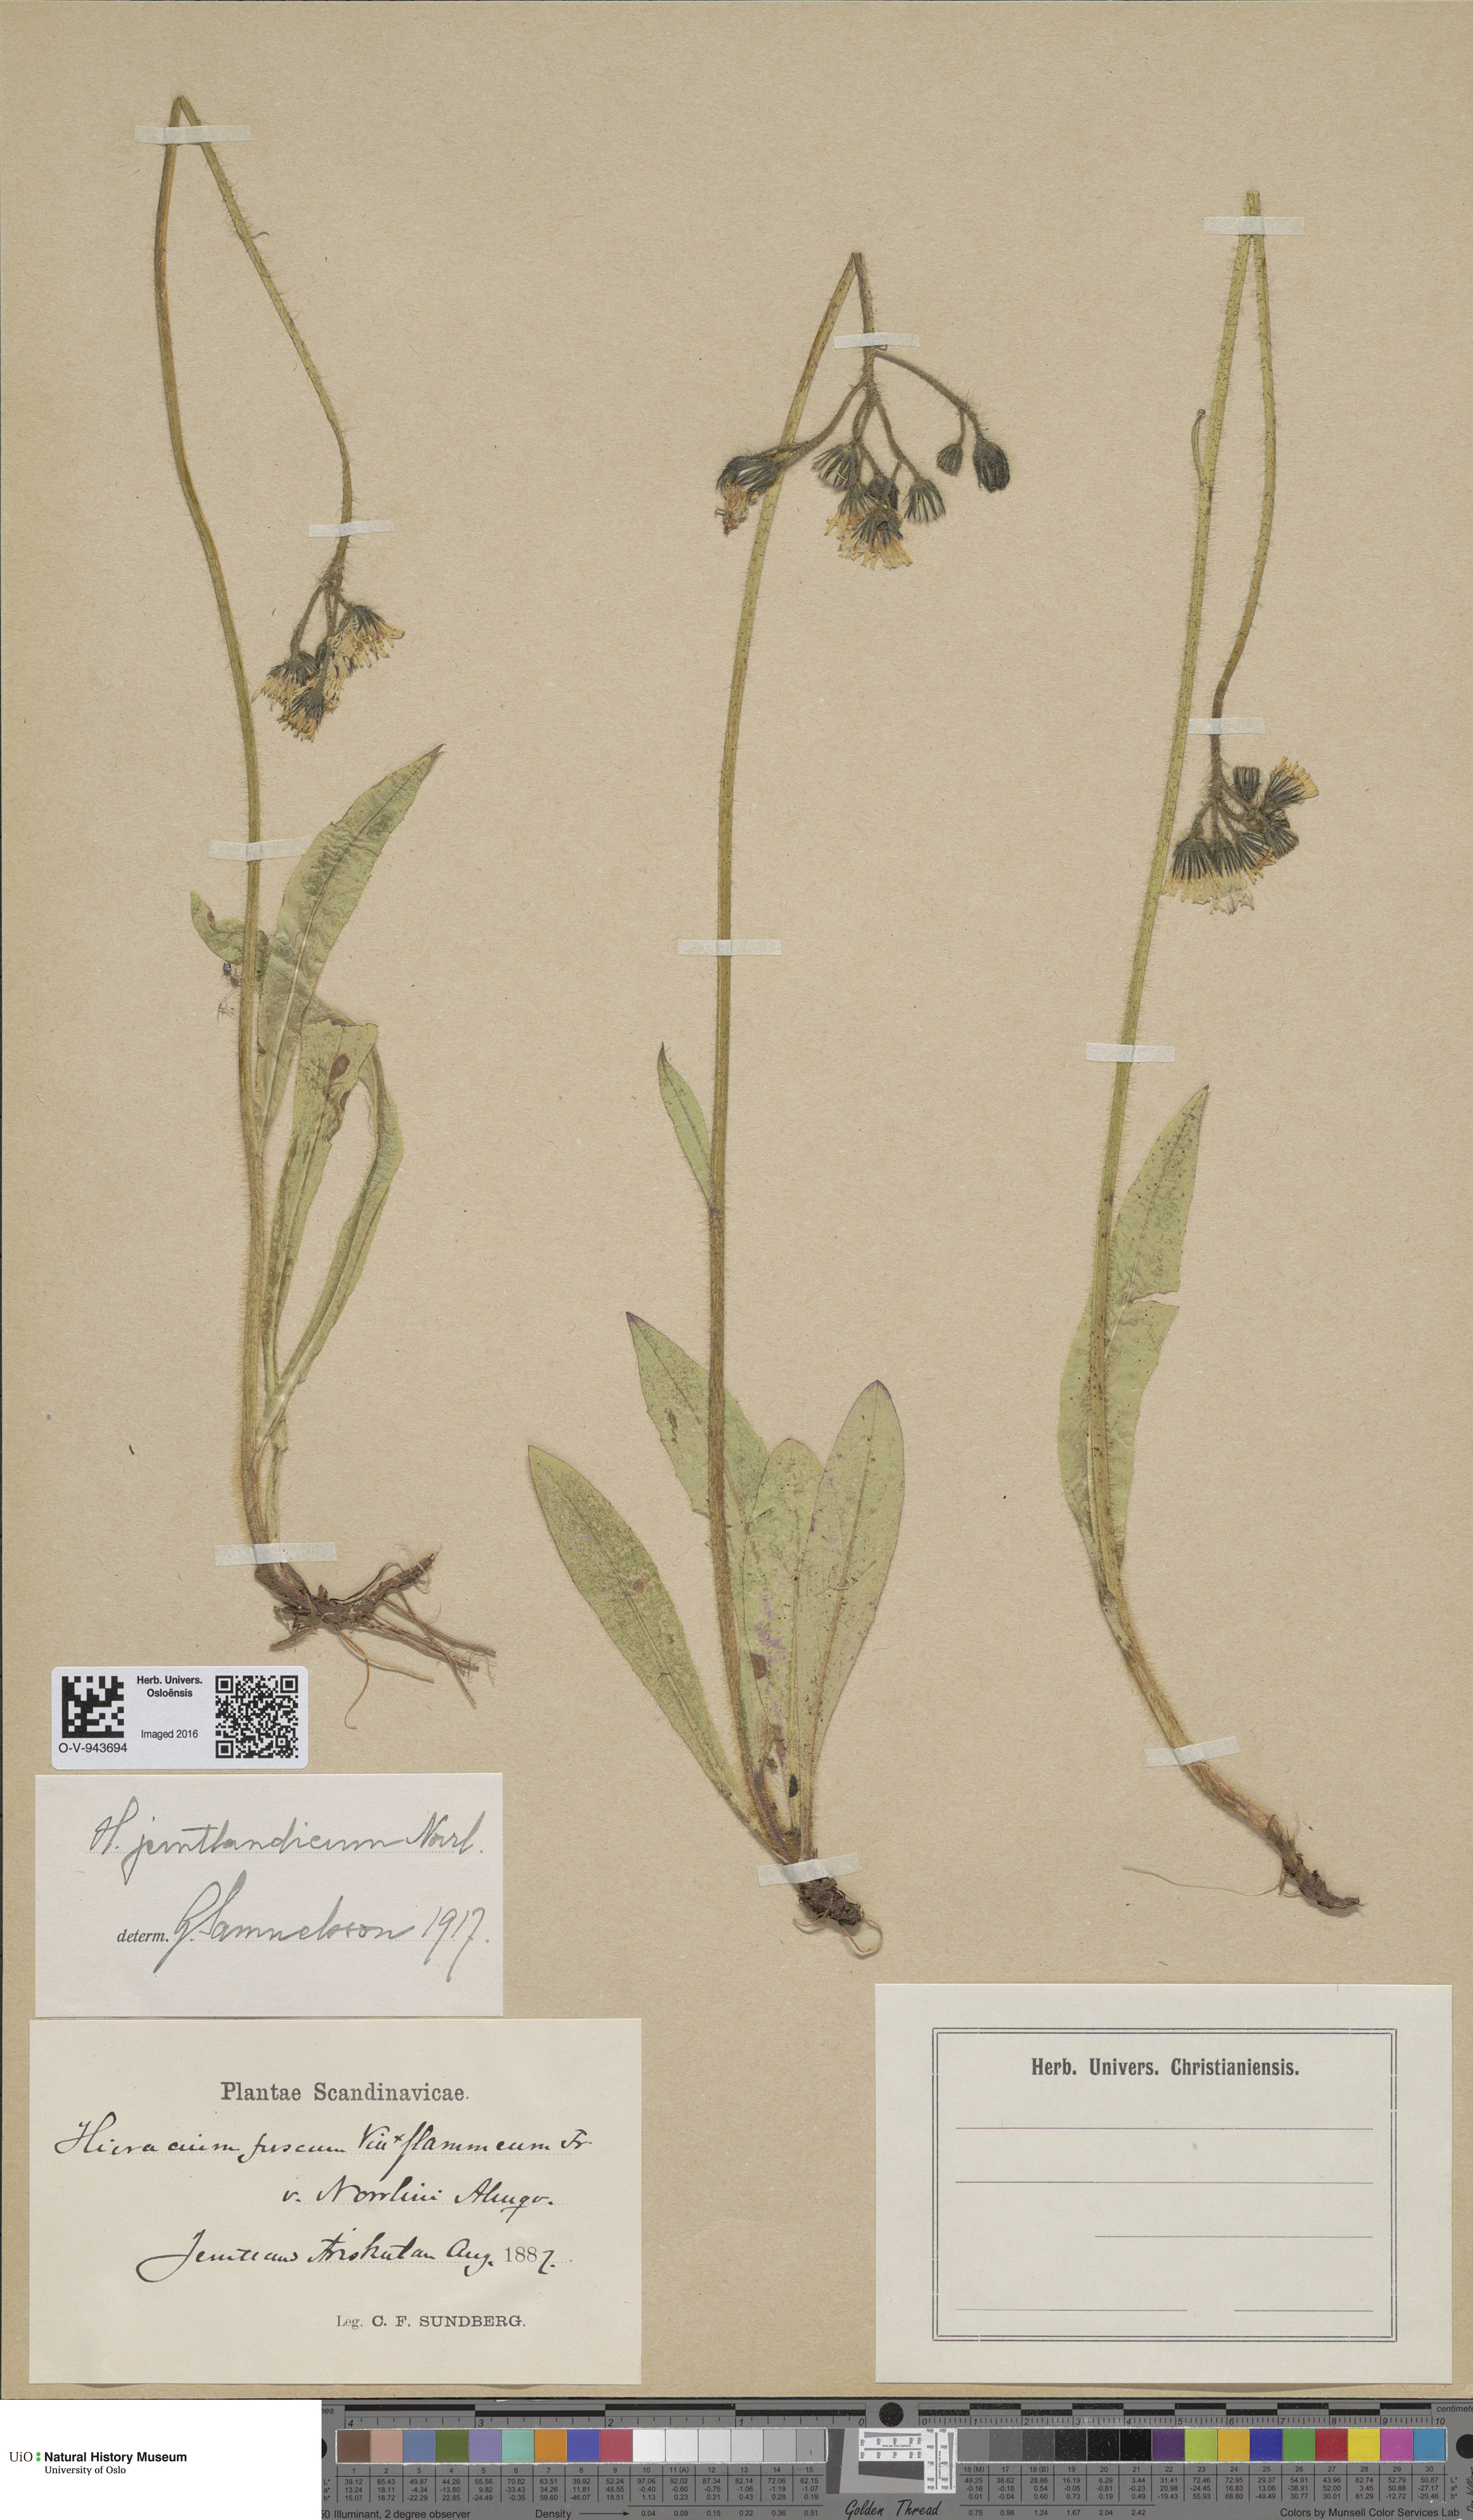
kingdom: Plantae
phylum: Tracheophyta
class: Magnoliopsida
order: Asterales
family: Asteraceae
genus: Pilosella
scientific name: Pilosella fusca
